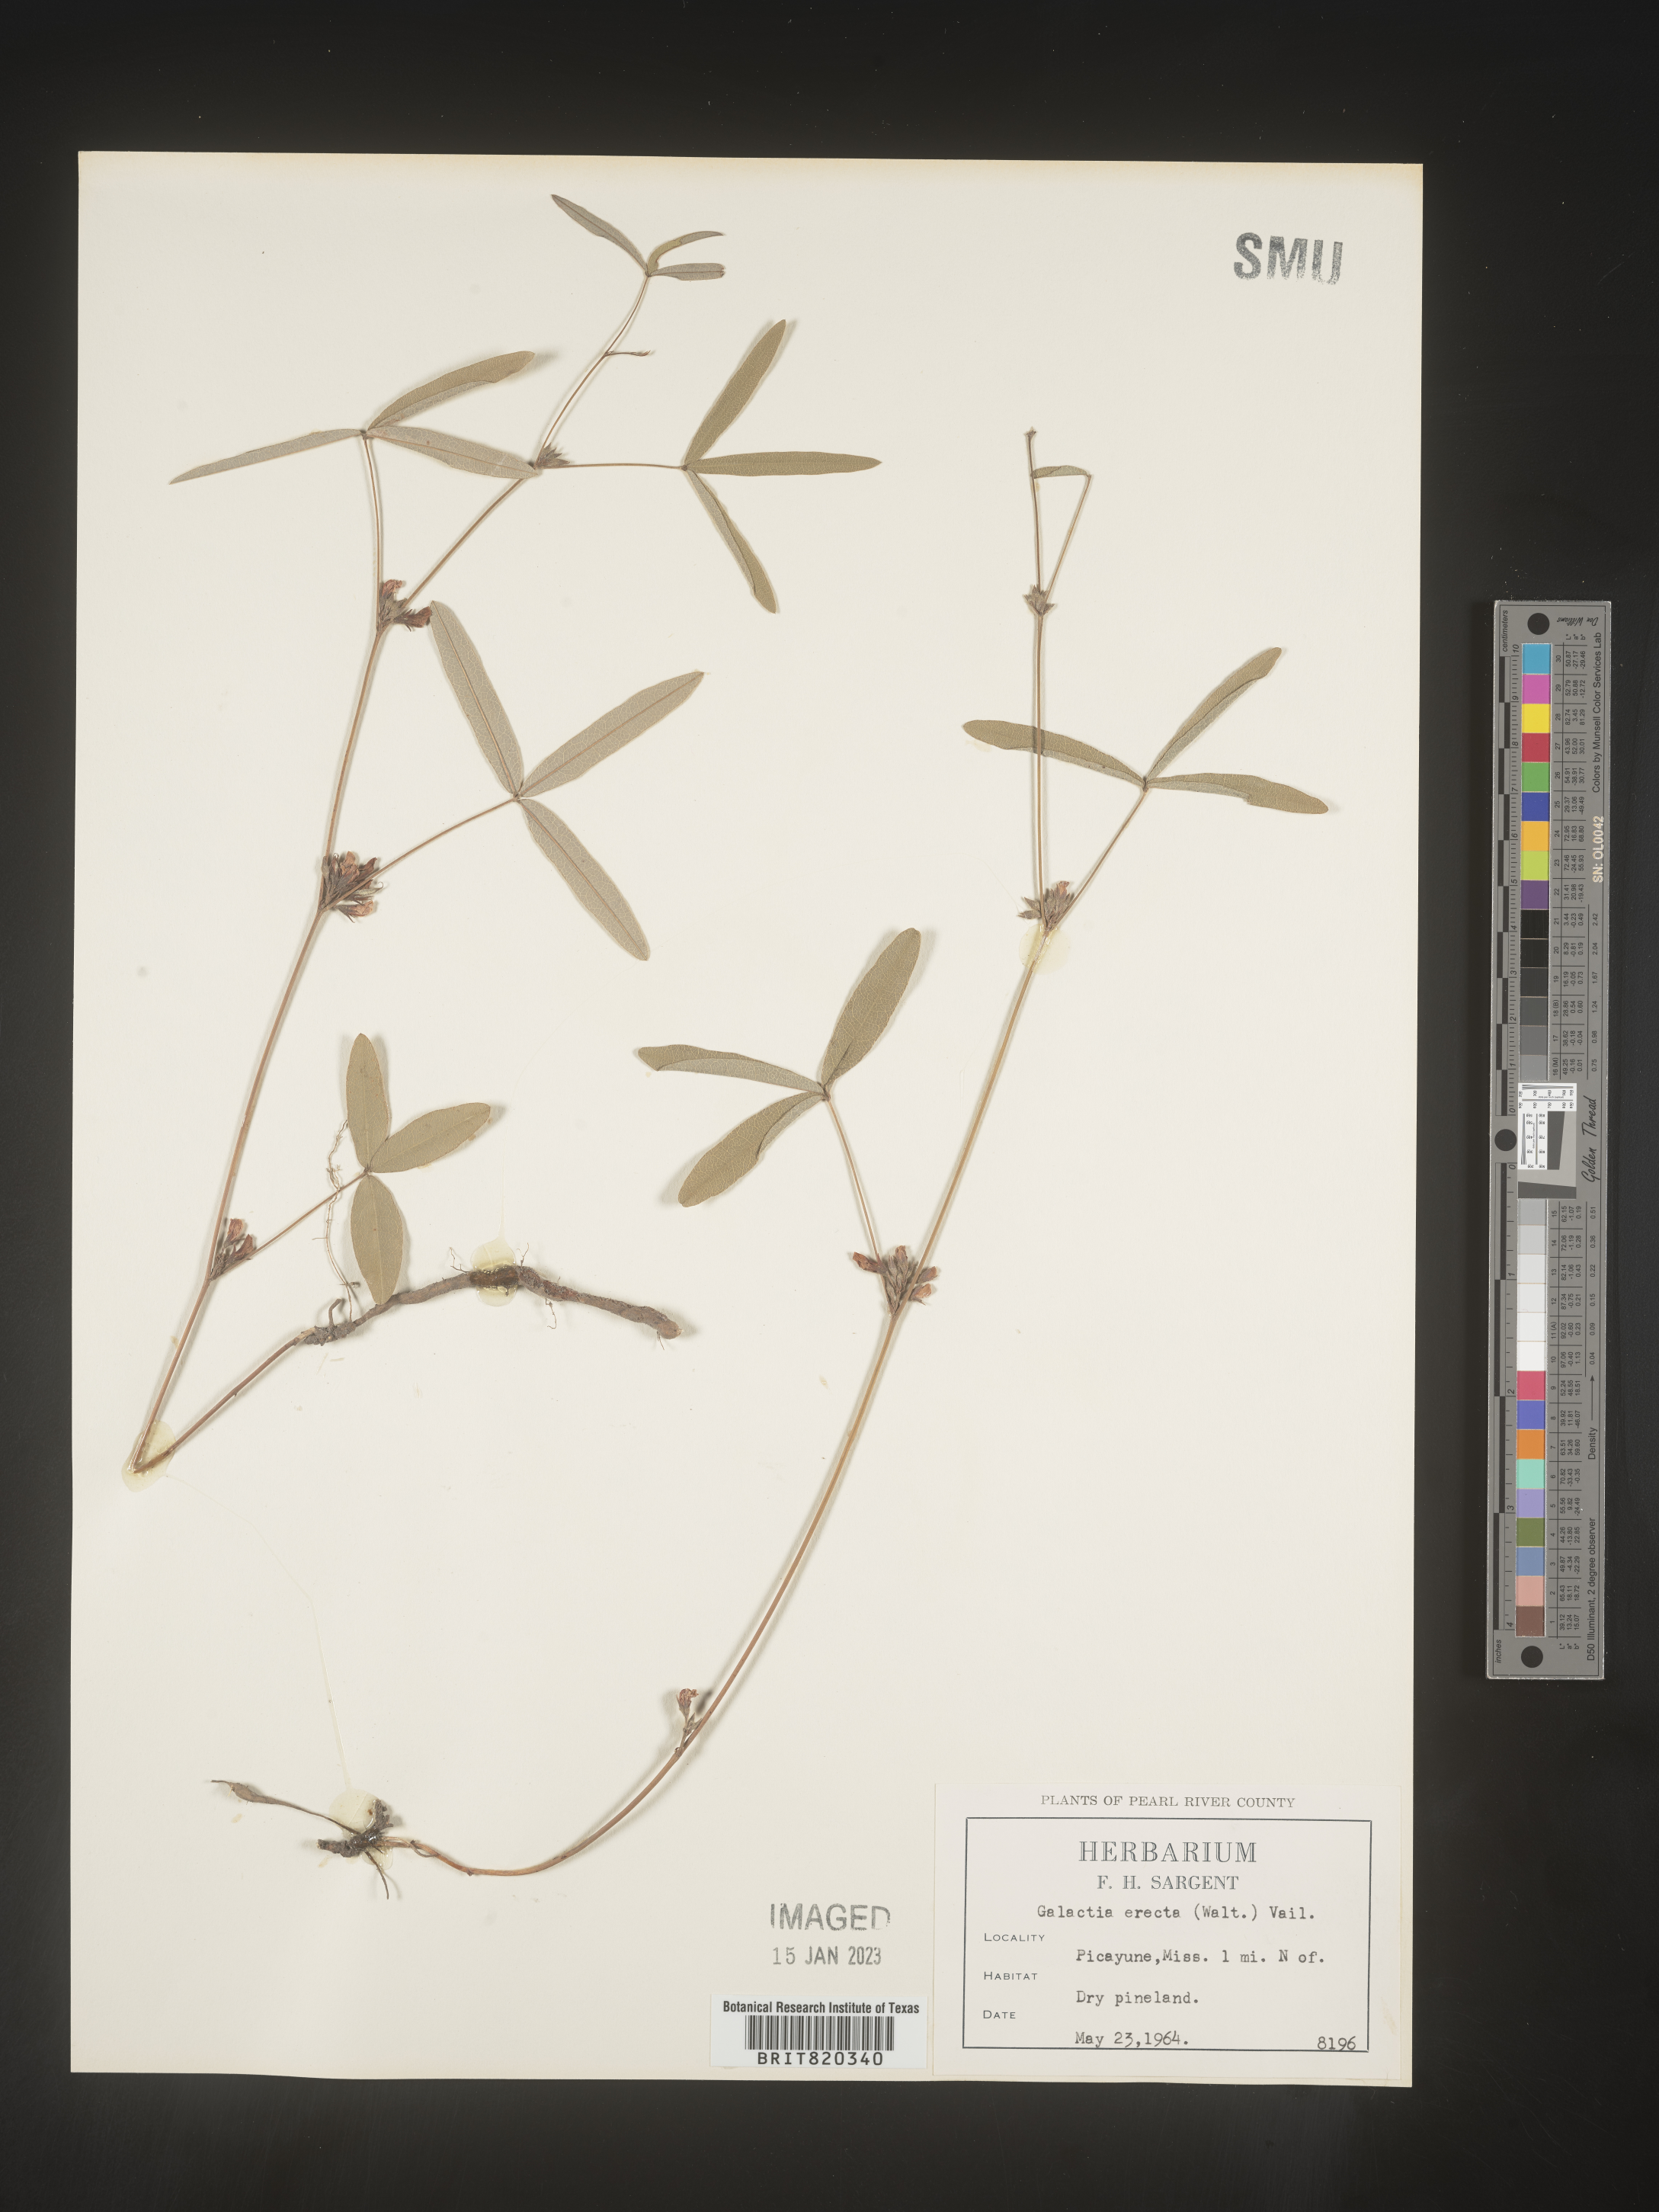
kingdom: Plantae
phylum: Tracheophyta
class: Magnoliopsida
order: Fabales
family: Fabaceae
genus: Galactia
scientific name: Galactia erecta
